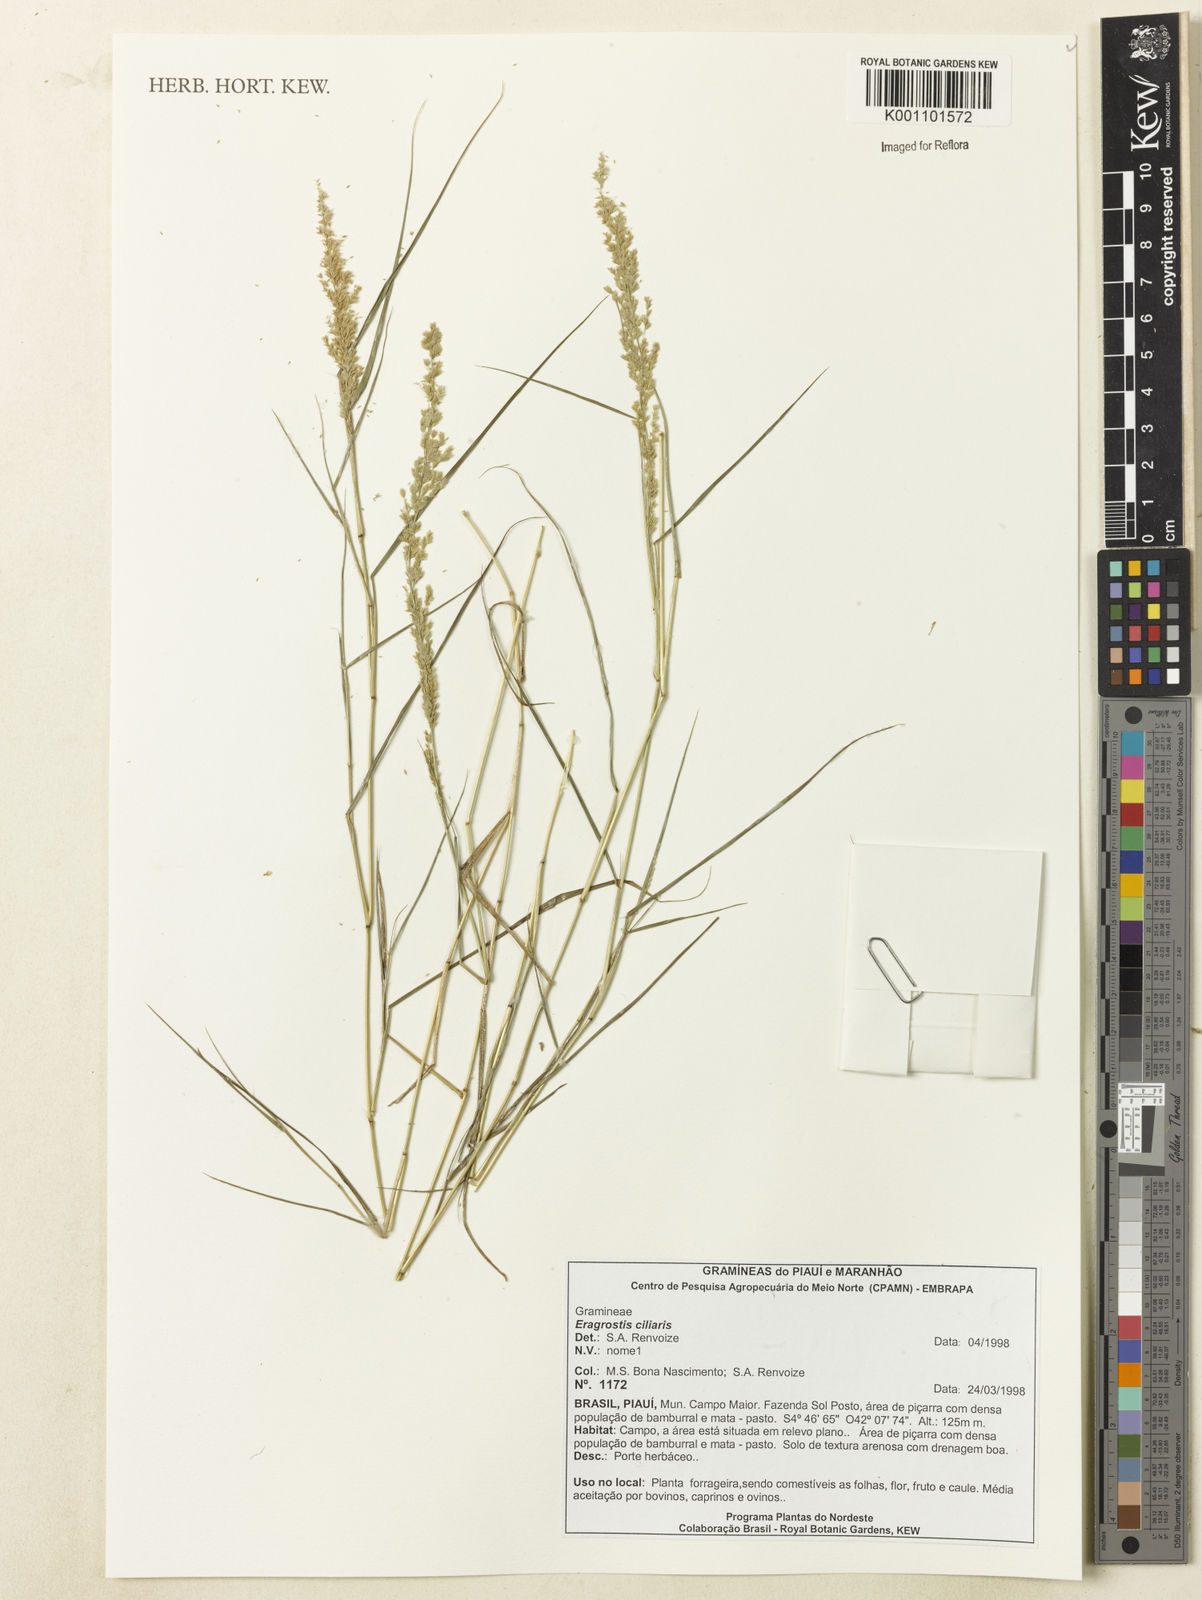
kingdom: Plantae
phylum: Tracheophyta
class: Liliopsida
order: Poales
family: Poaceae
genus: Eragrostis
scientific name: Eragrostis ciliaris
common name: Gophertail lovegrass
